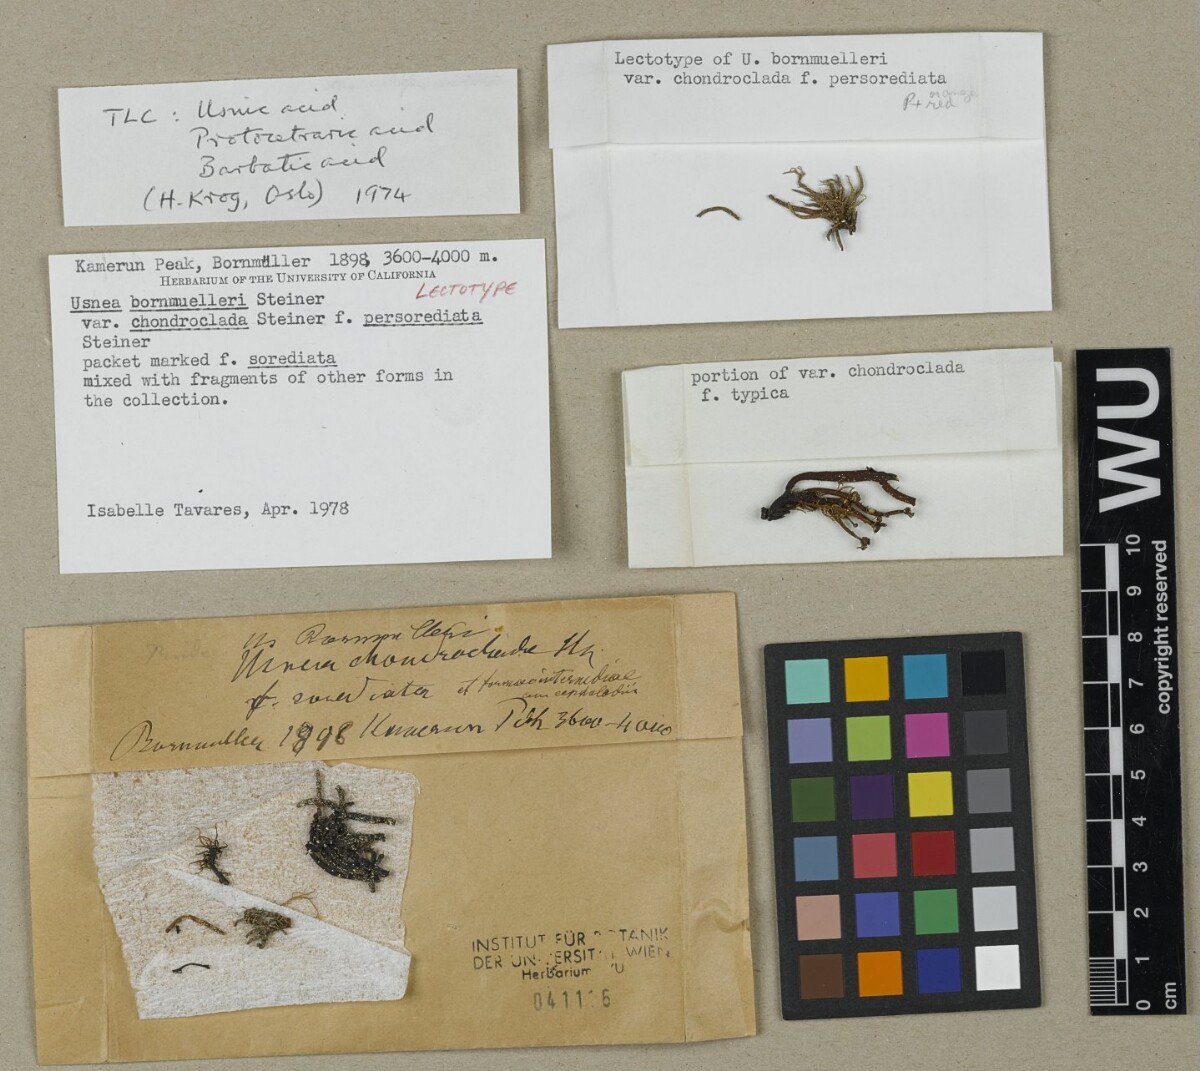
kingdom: Fungi
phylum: Ascomycota
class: Lecanoromycetes
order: Lecanorales
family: Parmeliaceae
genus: Usnea
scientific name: Usnea bornmuelleri
